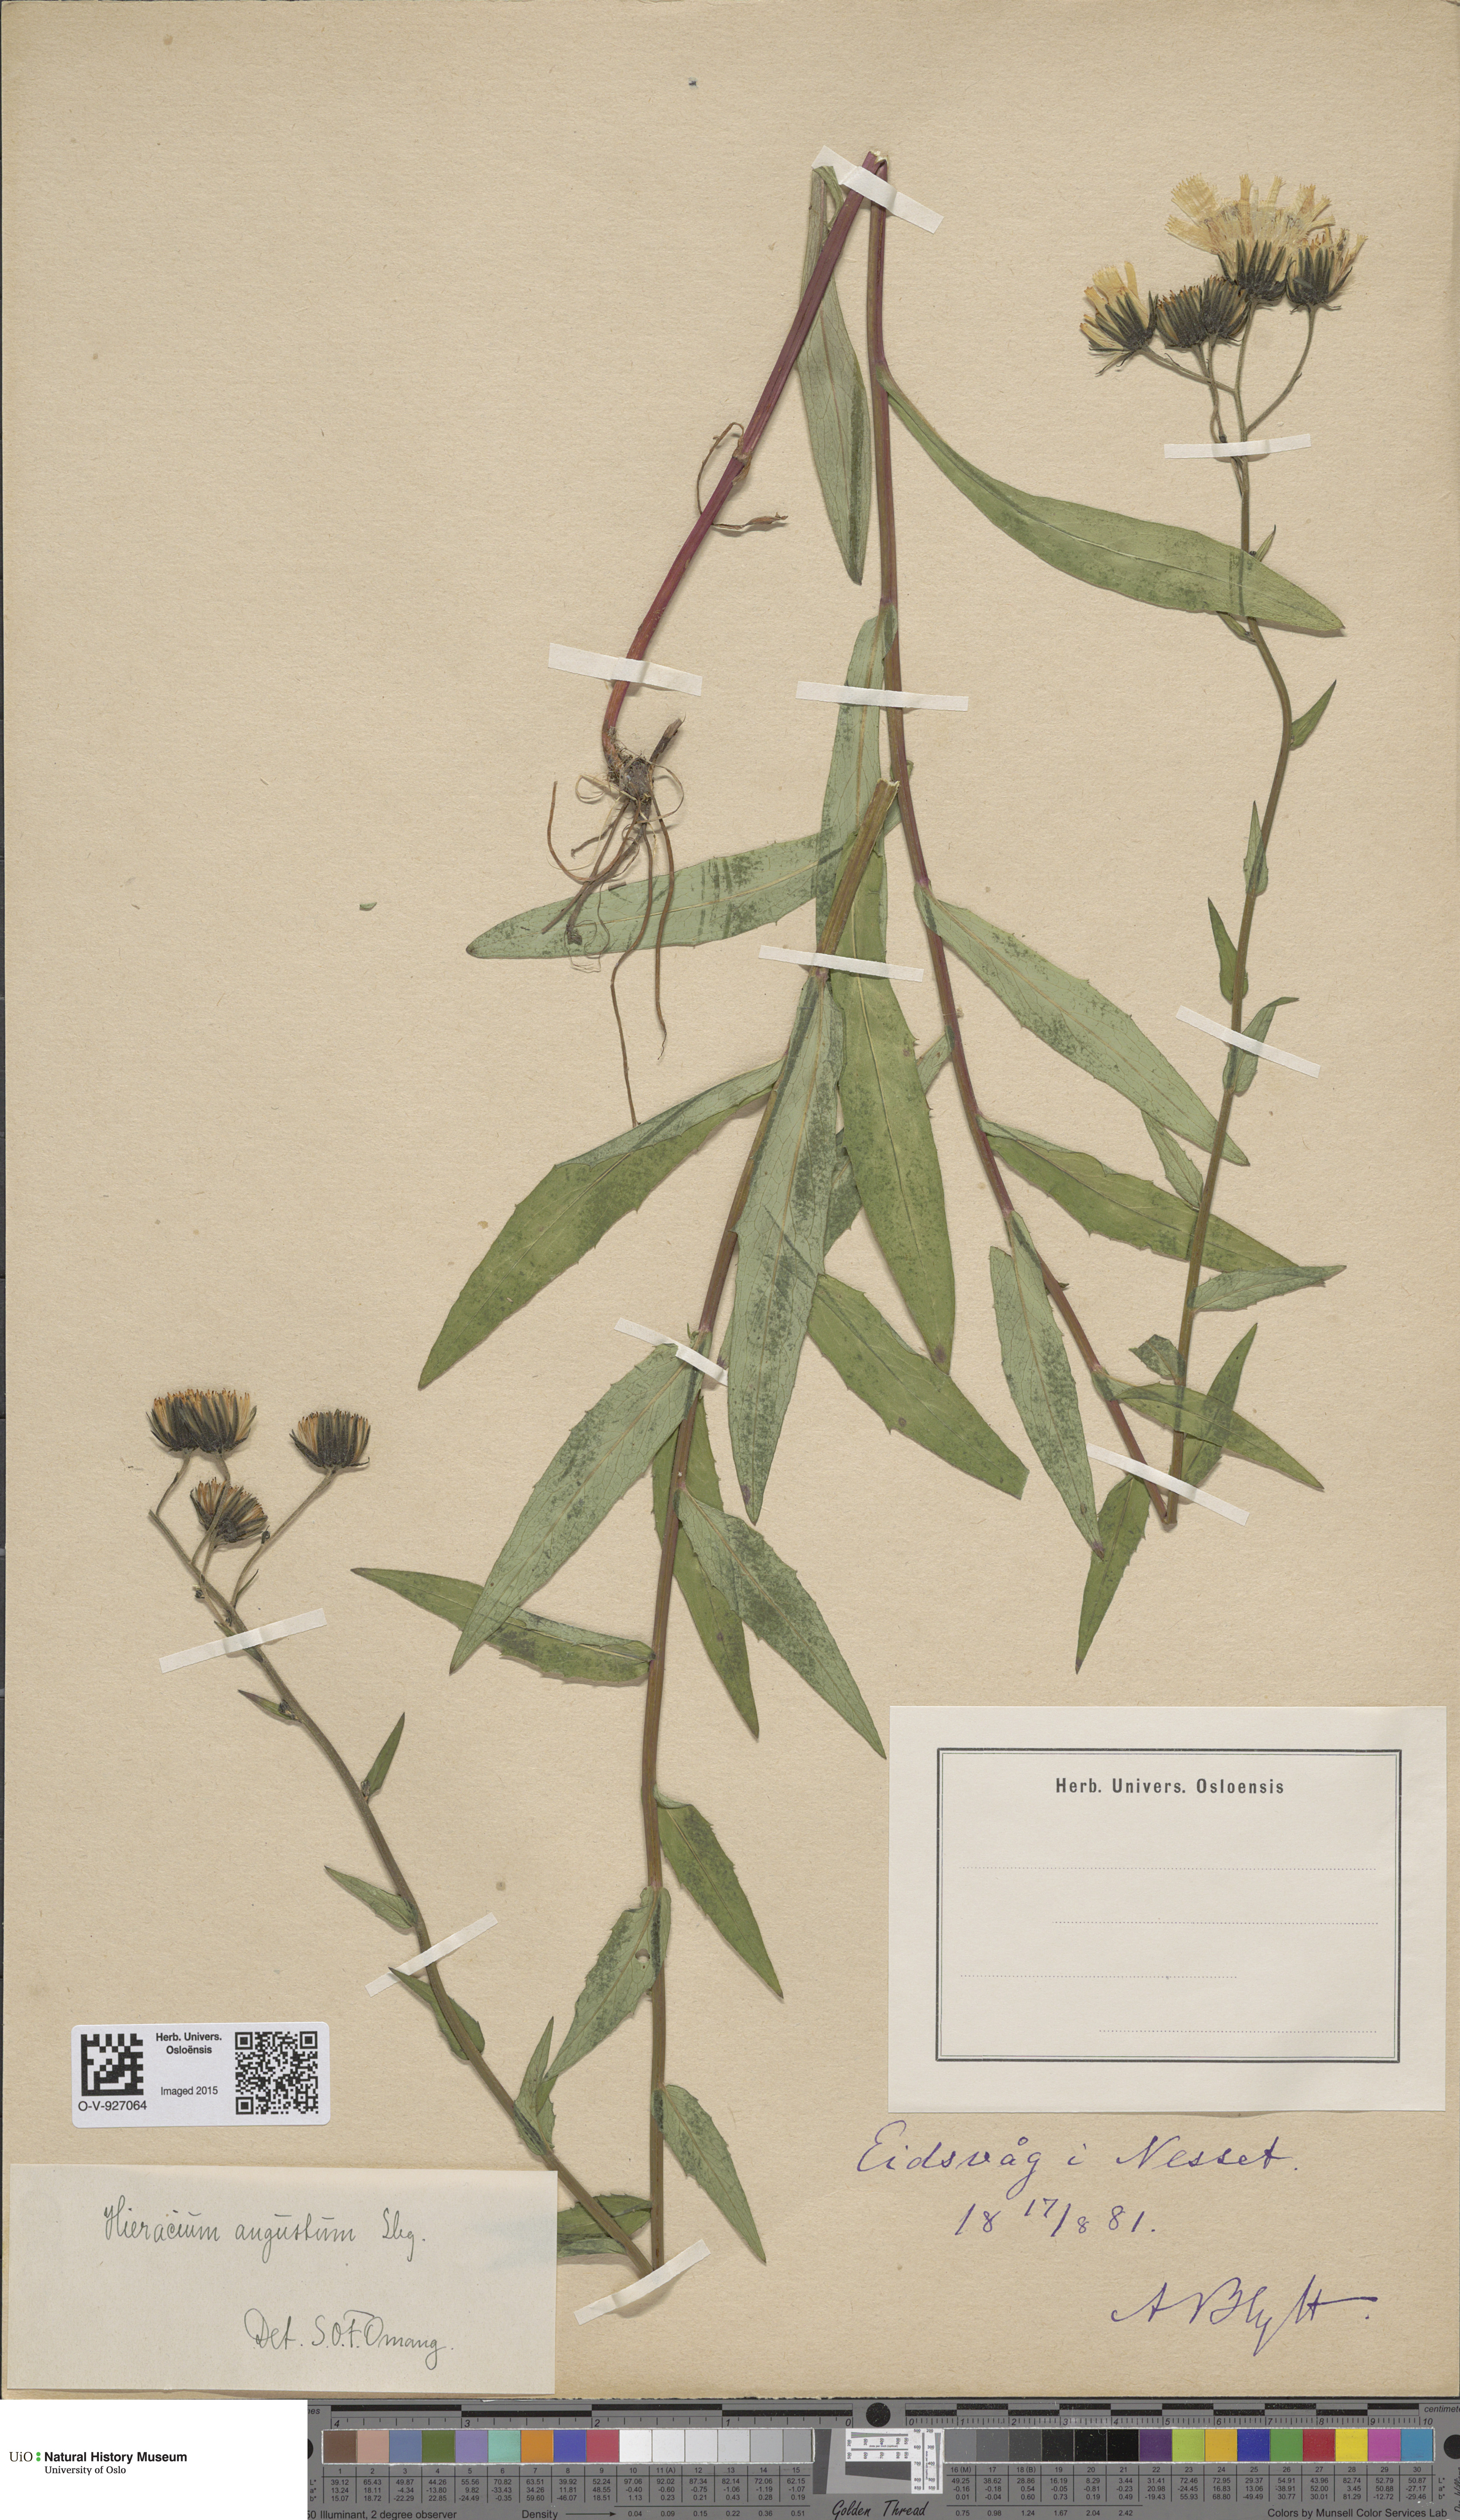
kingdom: Plantae
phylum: Tracheophyta
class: Magnoliopsida
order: Asterales
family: Asteraceae
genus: Hieracium
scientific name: Hieracium angustum
